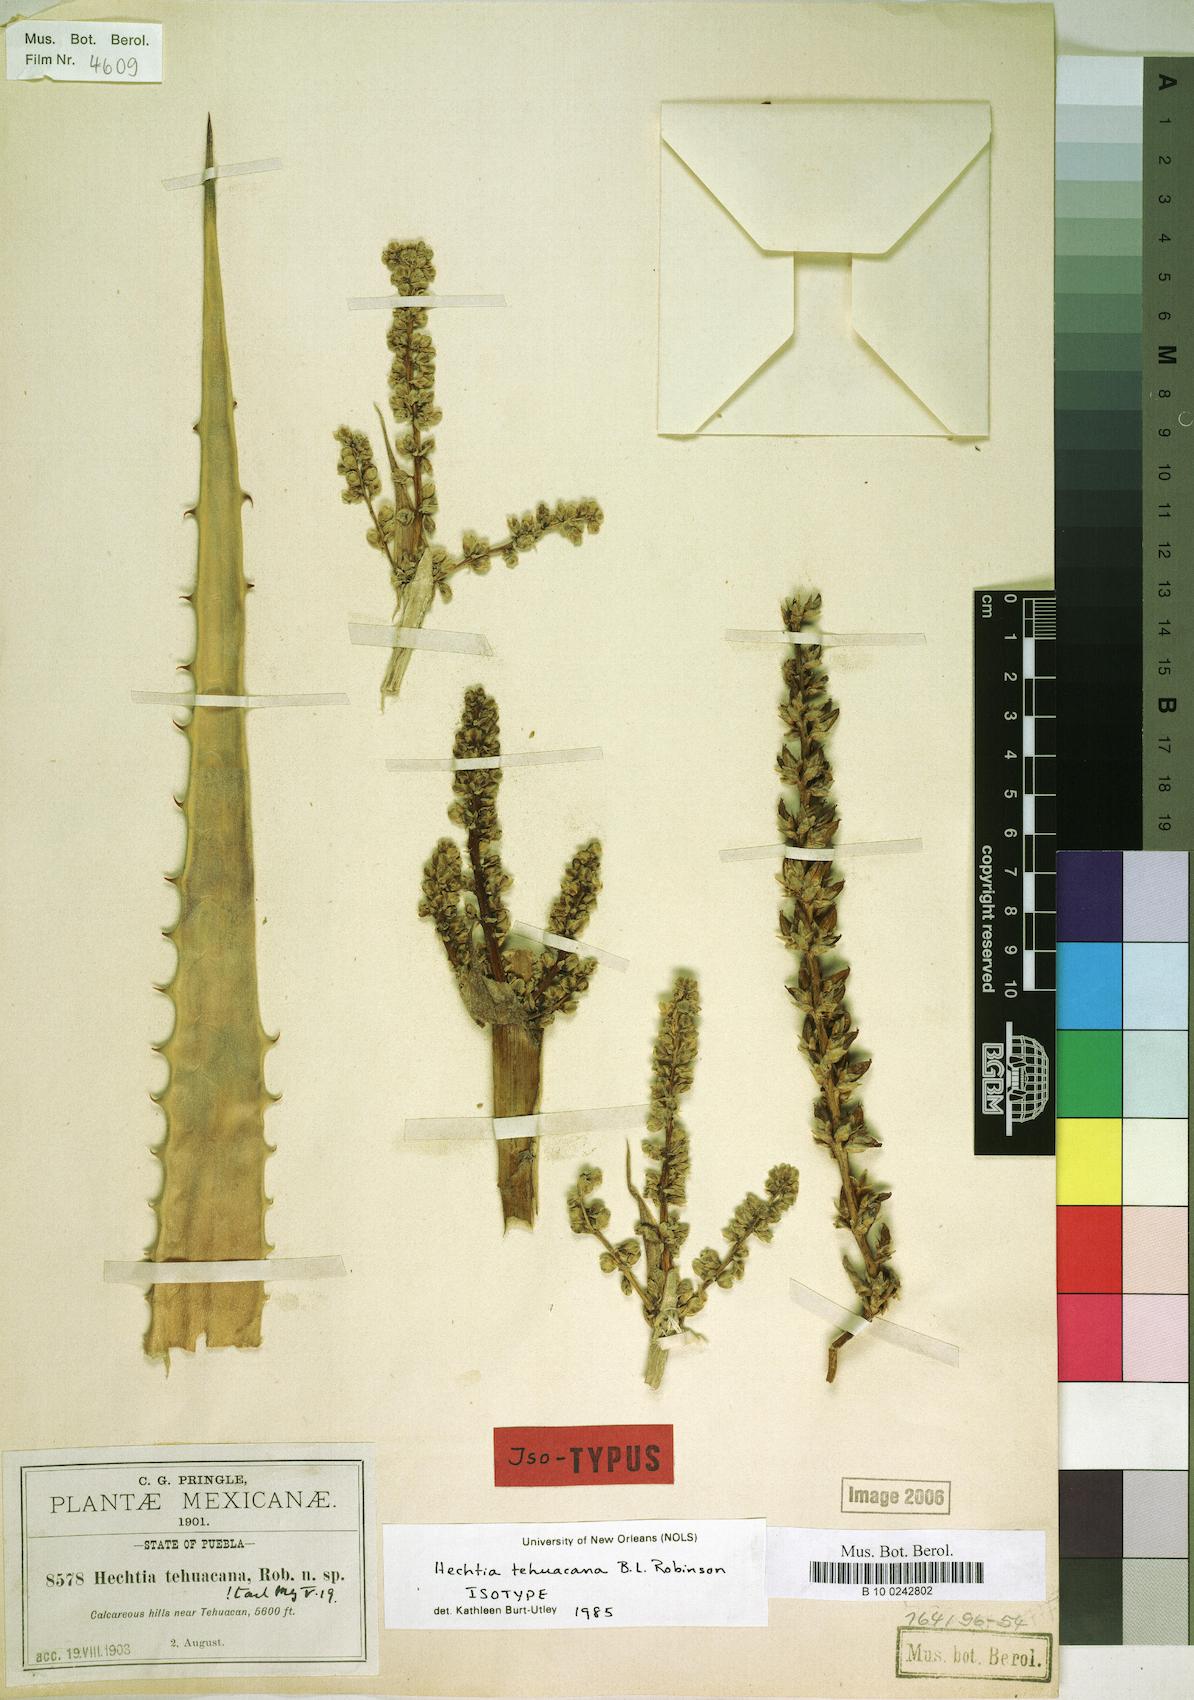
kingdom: Plantae
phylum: Tracheophyta
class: Liliopsida
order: Poales
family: Bromeliaceae
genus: Hechtia
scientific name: Hechtia liebmannii
